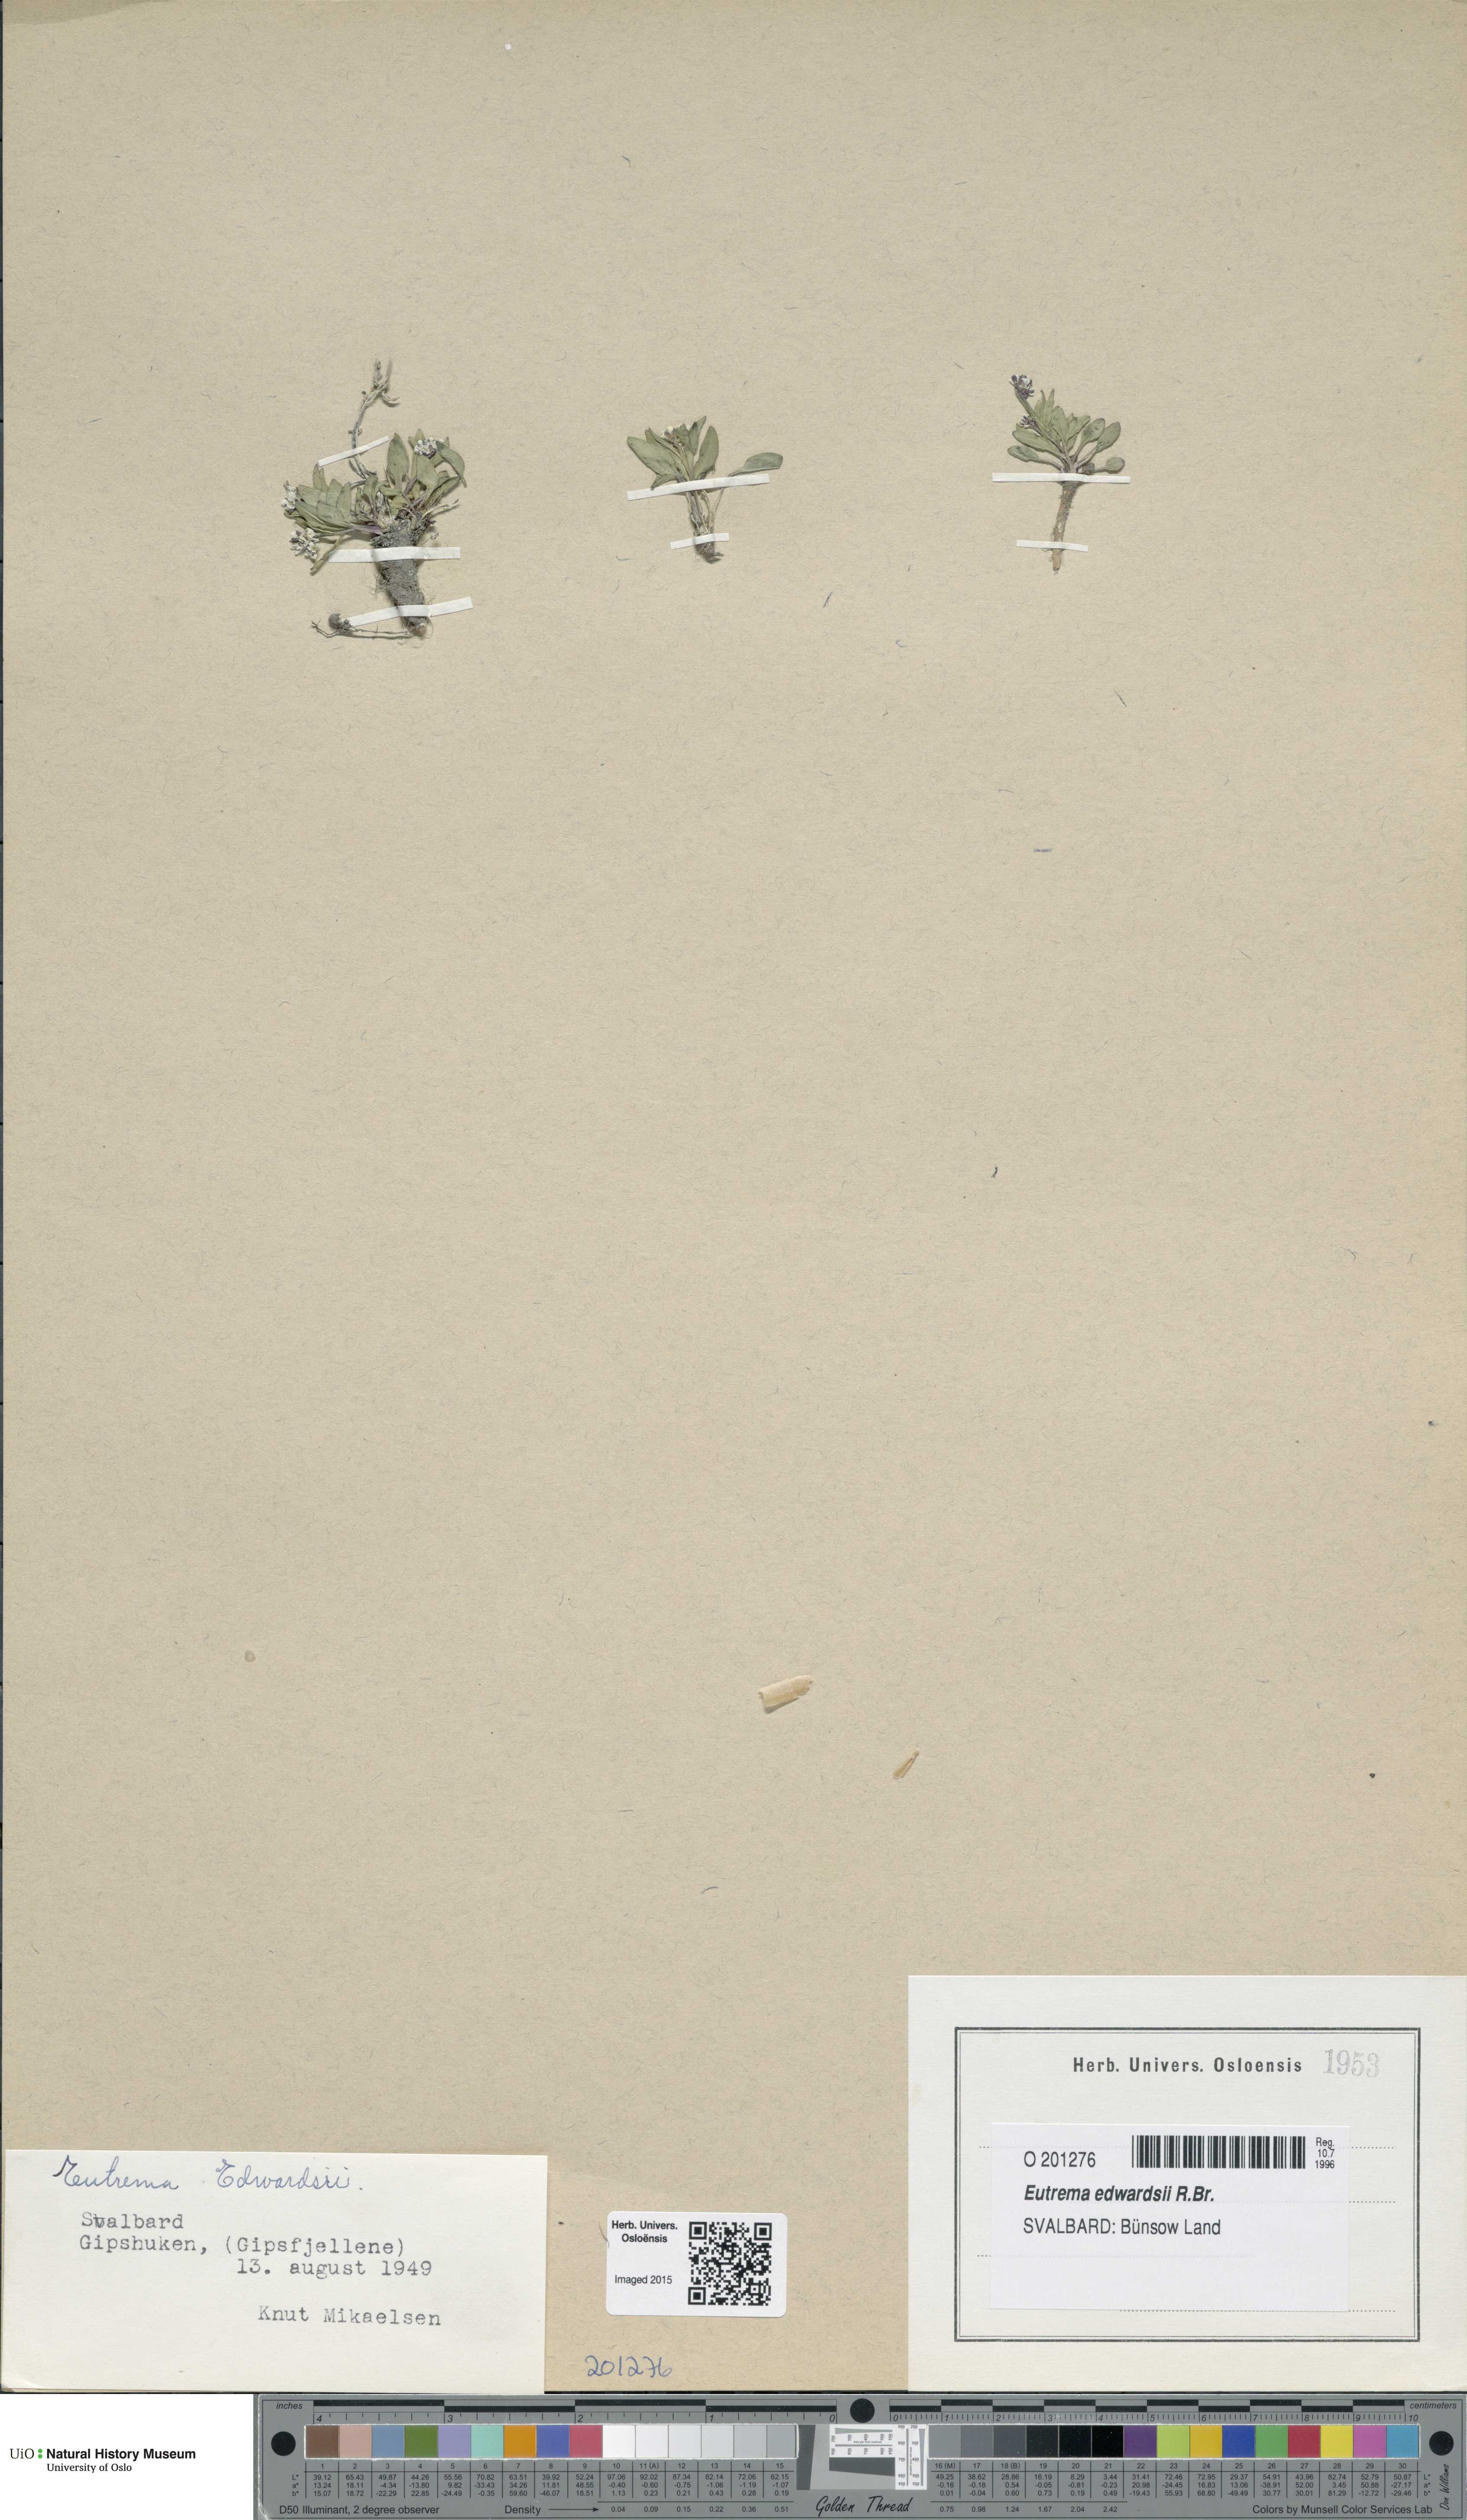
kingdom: Plantae
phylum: Tracheophyta
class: Magnoliopsida
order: Brassicales
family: Brassicaceae
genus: Eutrema
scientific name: Eutrema edwardsii
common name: Penland alpine fen mustard
